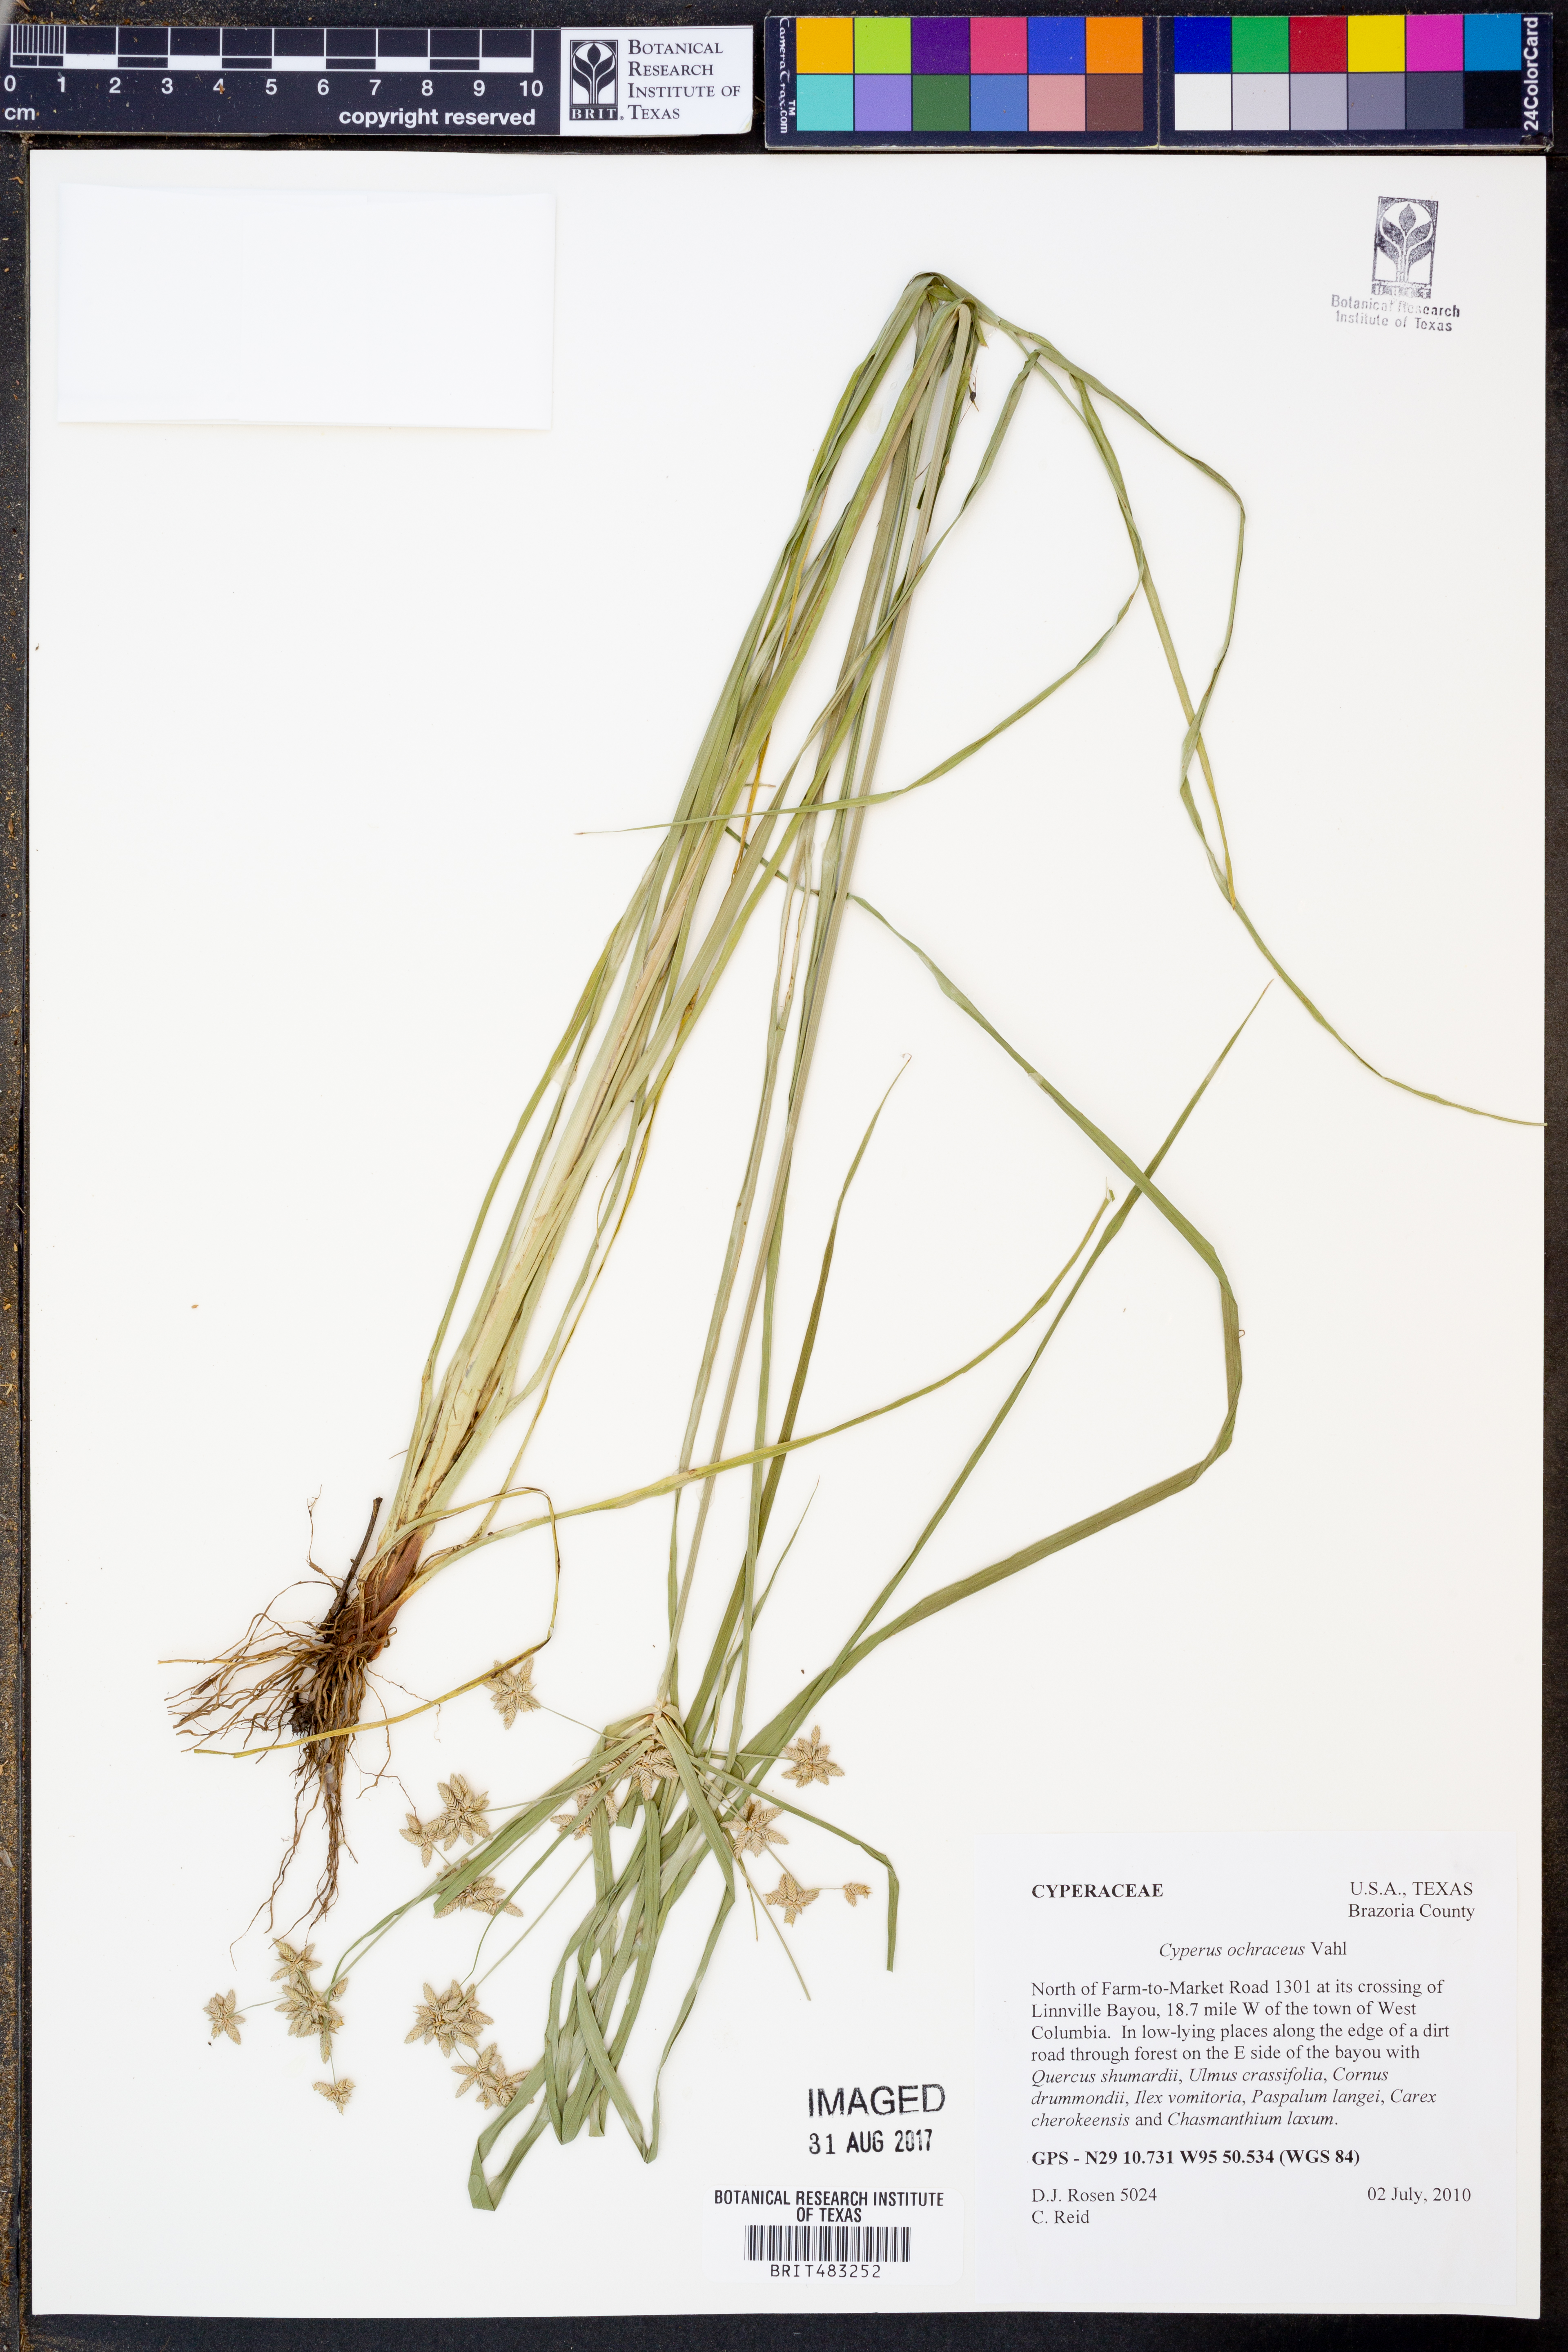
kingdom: Plantae
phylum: Tracheophyta
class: Liliopsida
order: Poales
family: Cyperaceae
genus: Cyperus
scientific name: Cyperus ochraceus
